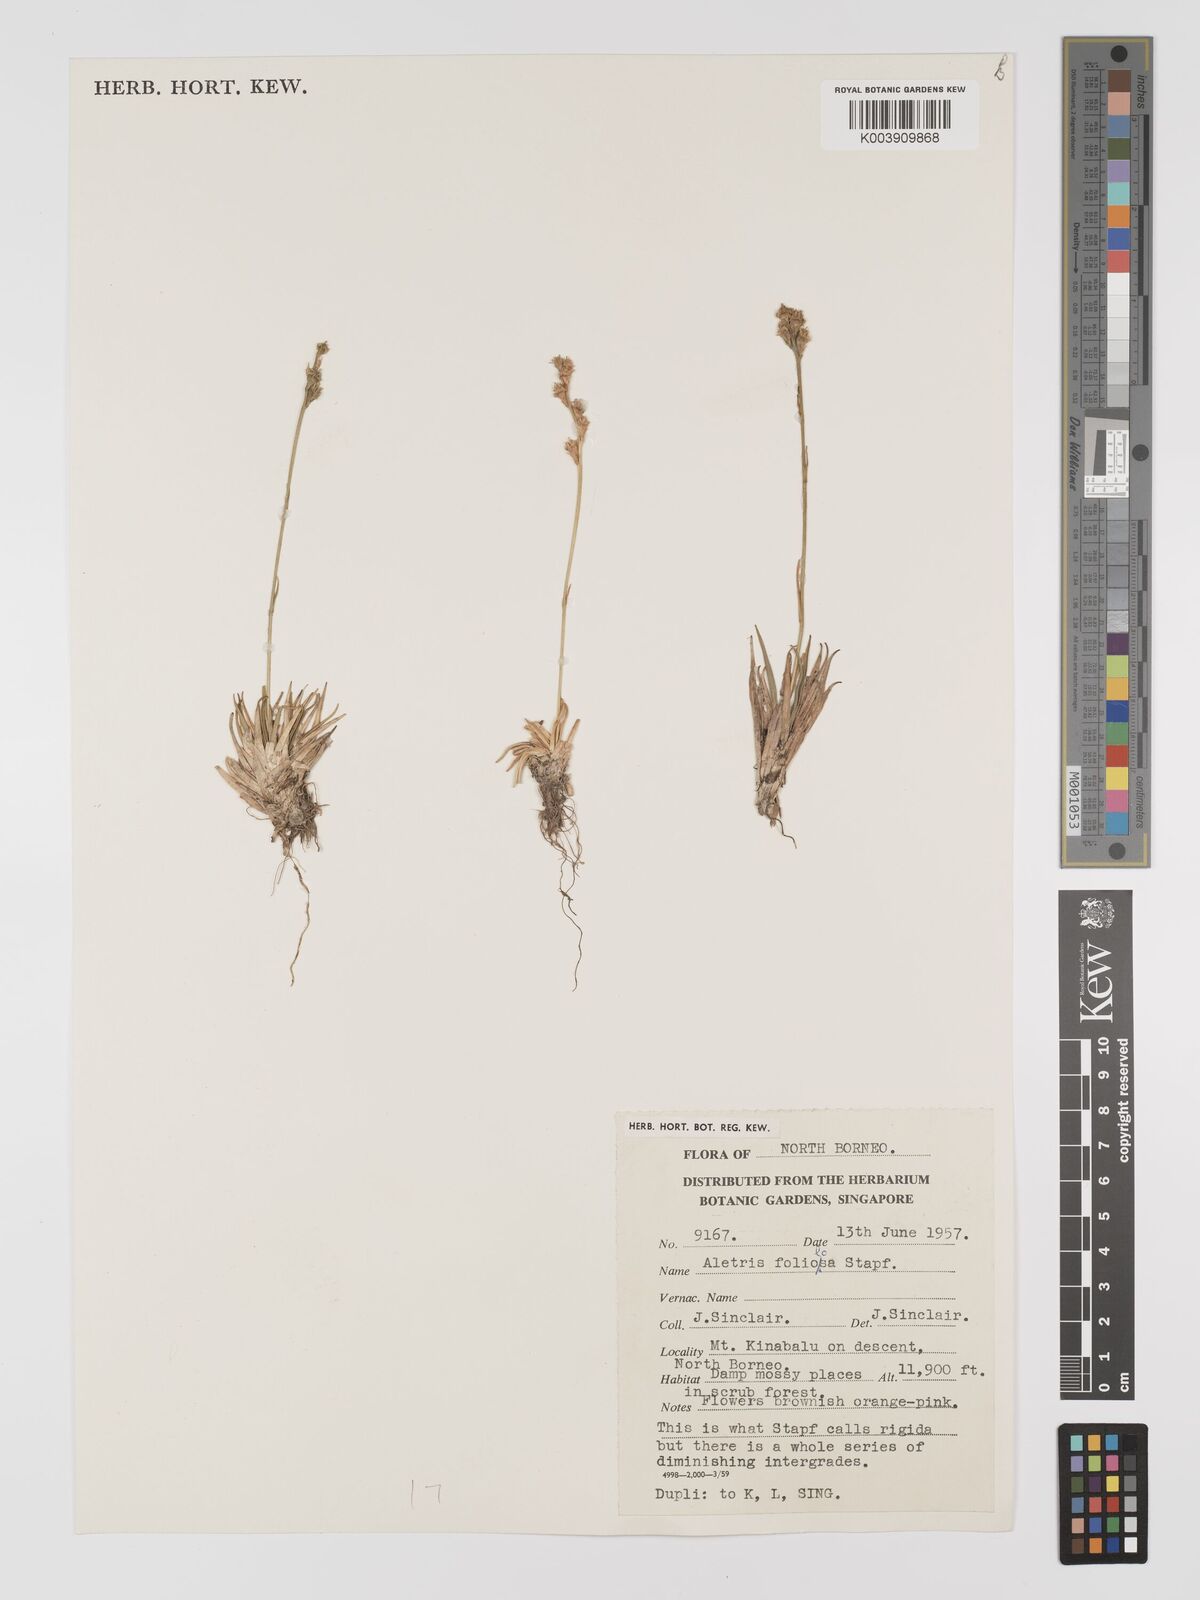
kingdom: Plantae
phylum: Tracheophyta
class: Liliopsida
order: Dioscoreales
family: Nartheciaceae
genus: Aletris
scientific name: Aletris foliolosa
